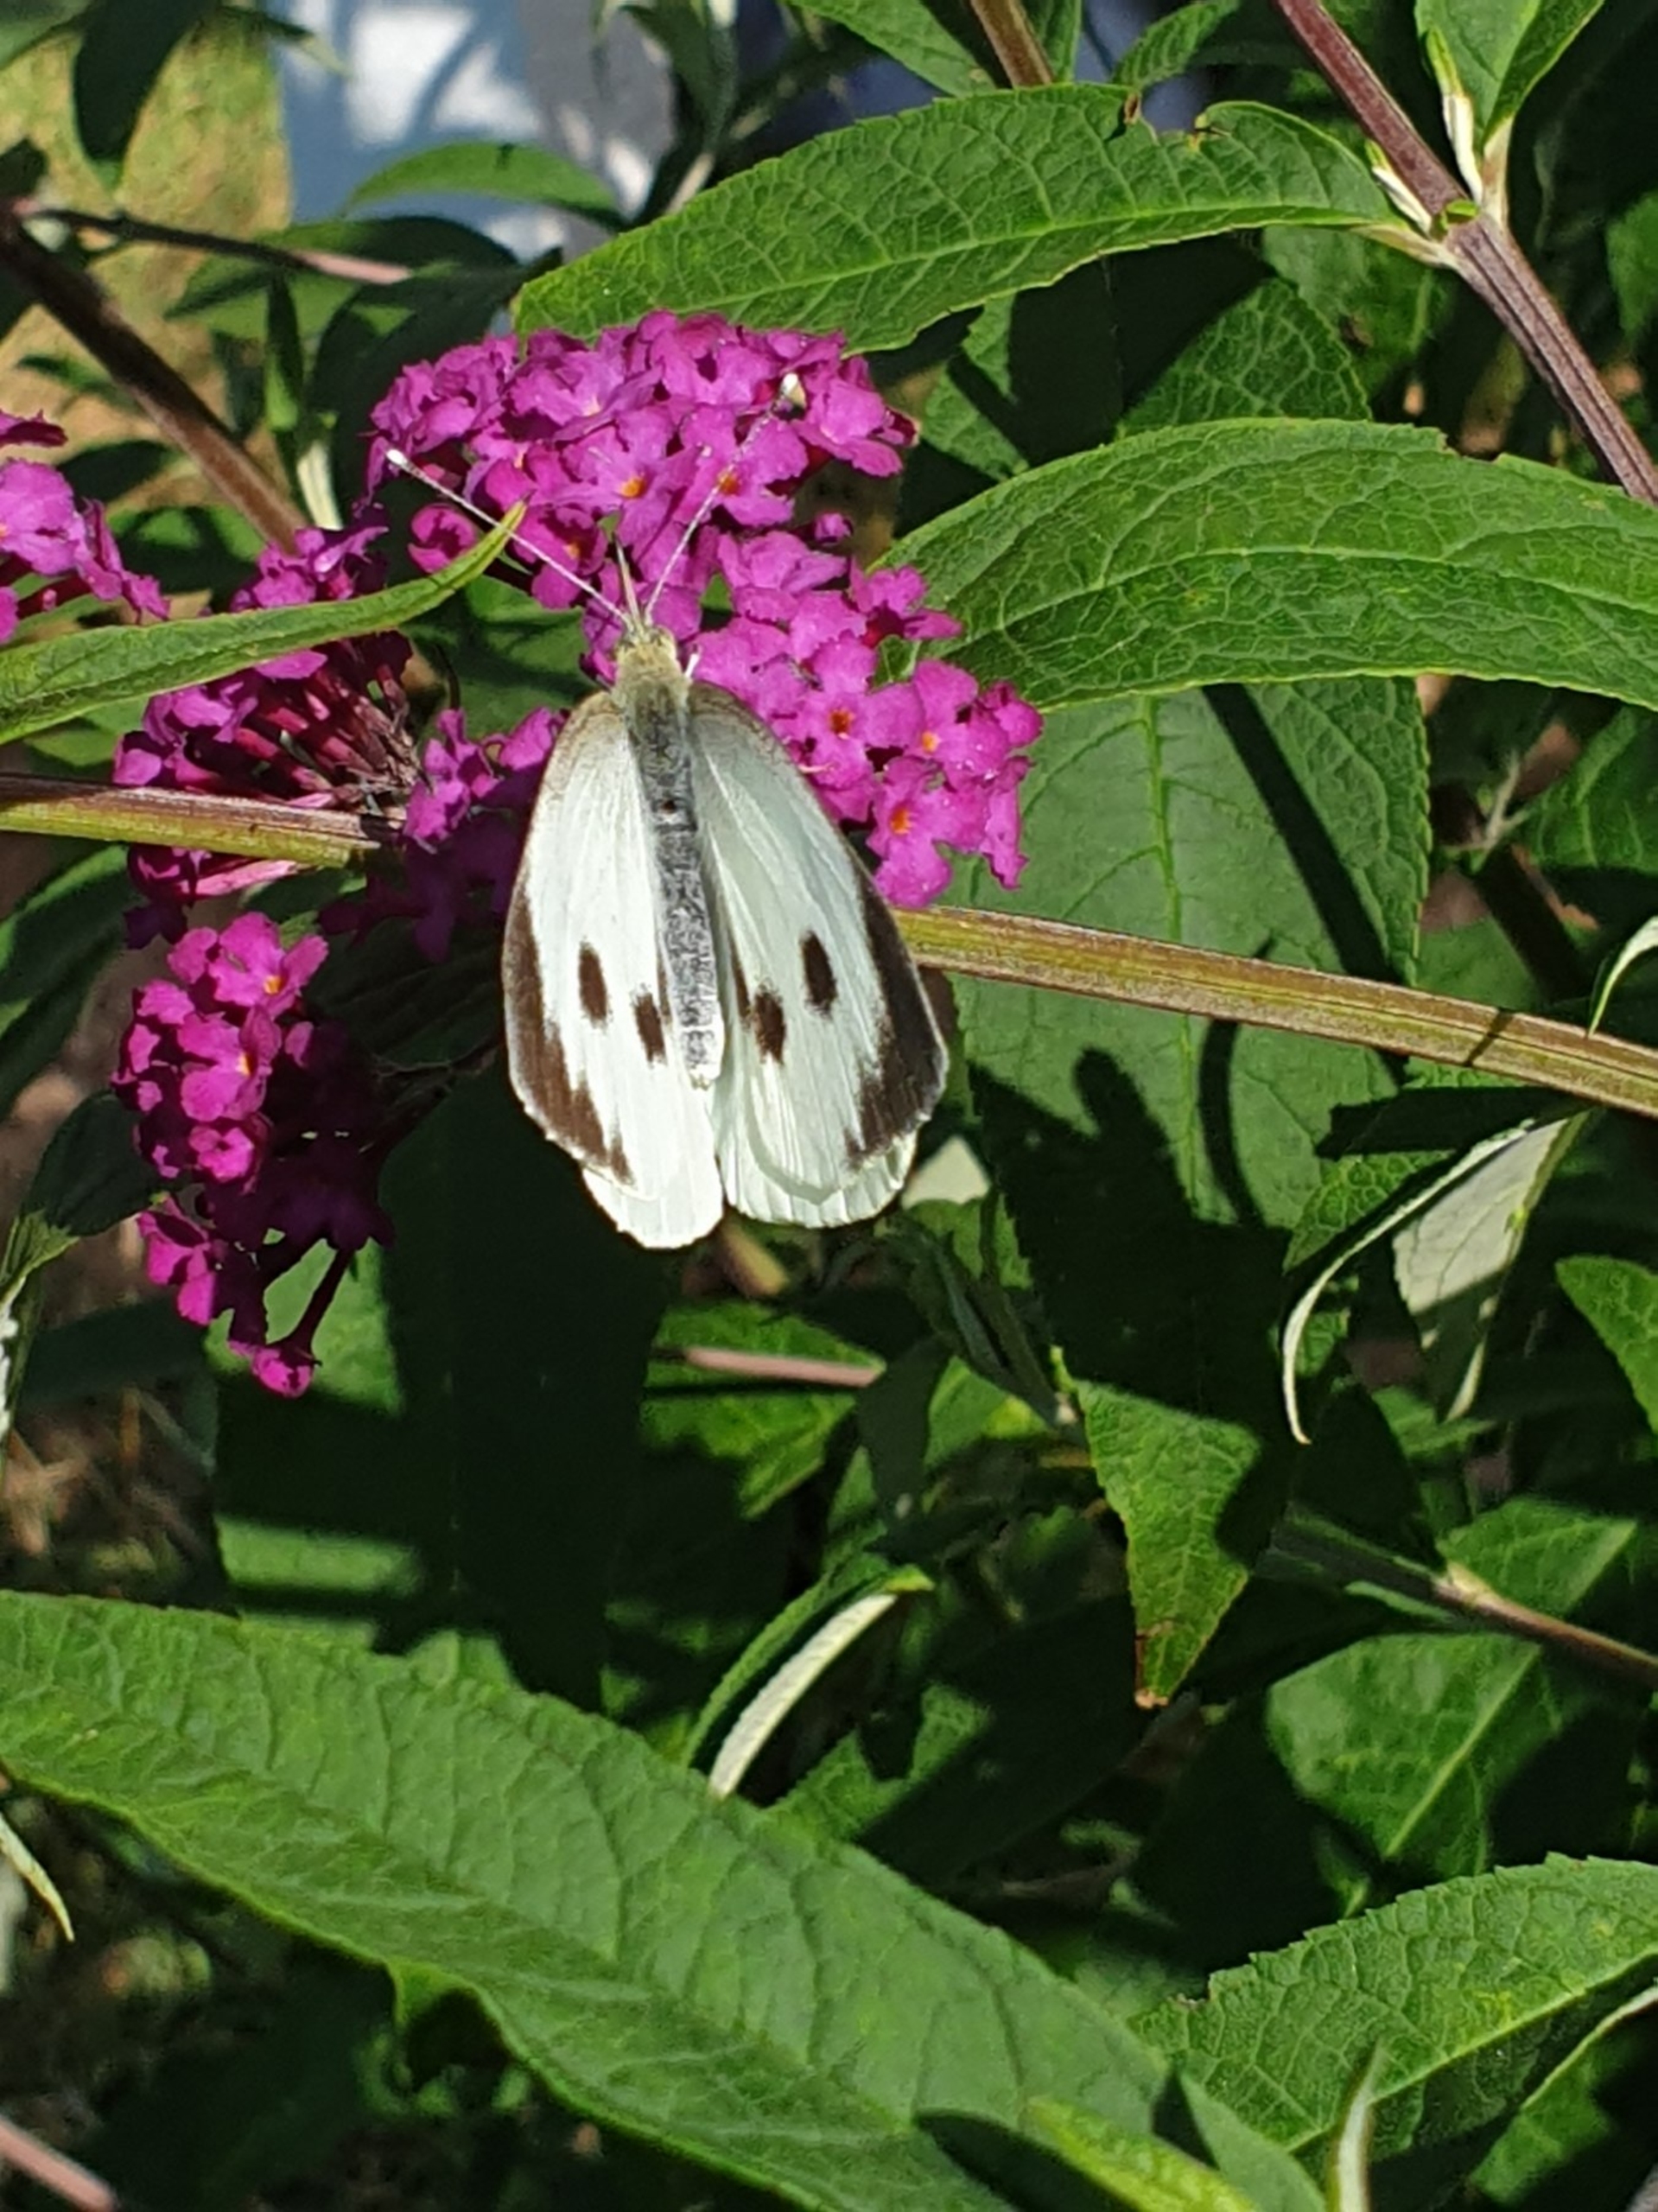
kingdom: Animalia
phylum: Arthropoda
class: Insecta
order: Lepidoptera
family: Pieridae
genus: Pieris
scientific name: Pieris brassicae
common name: Stor kålsommerfugl
